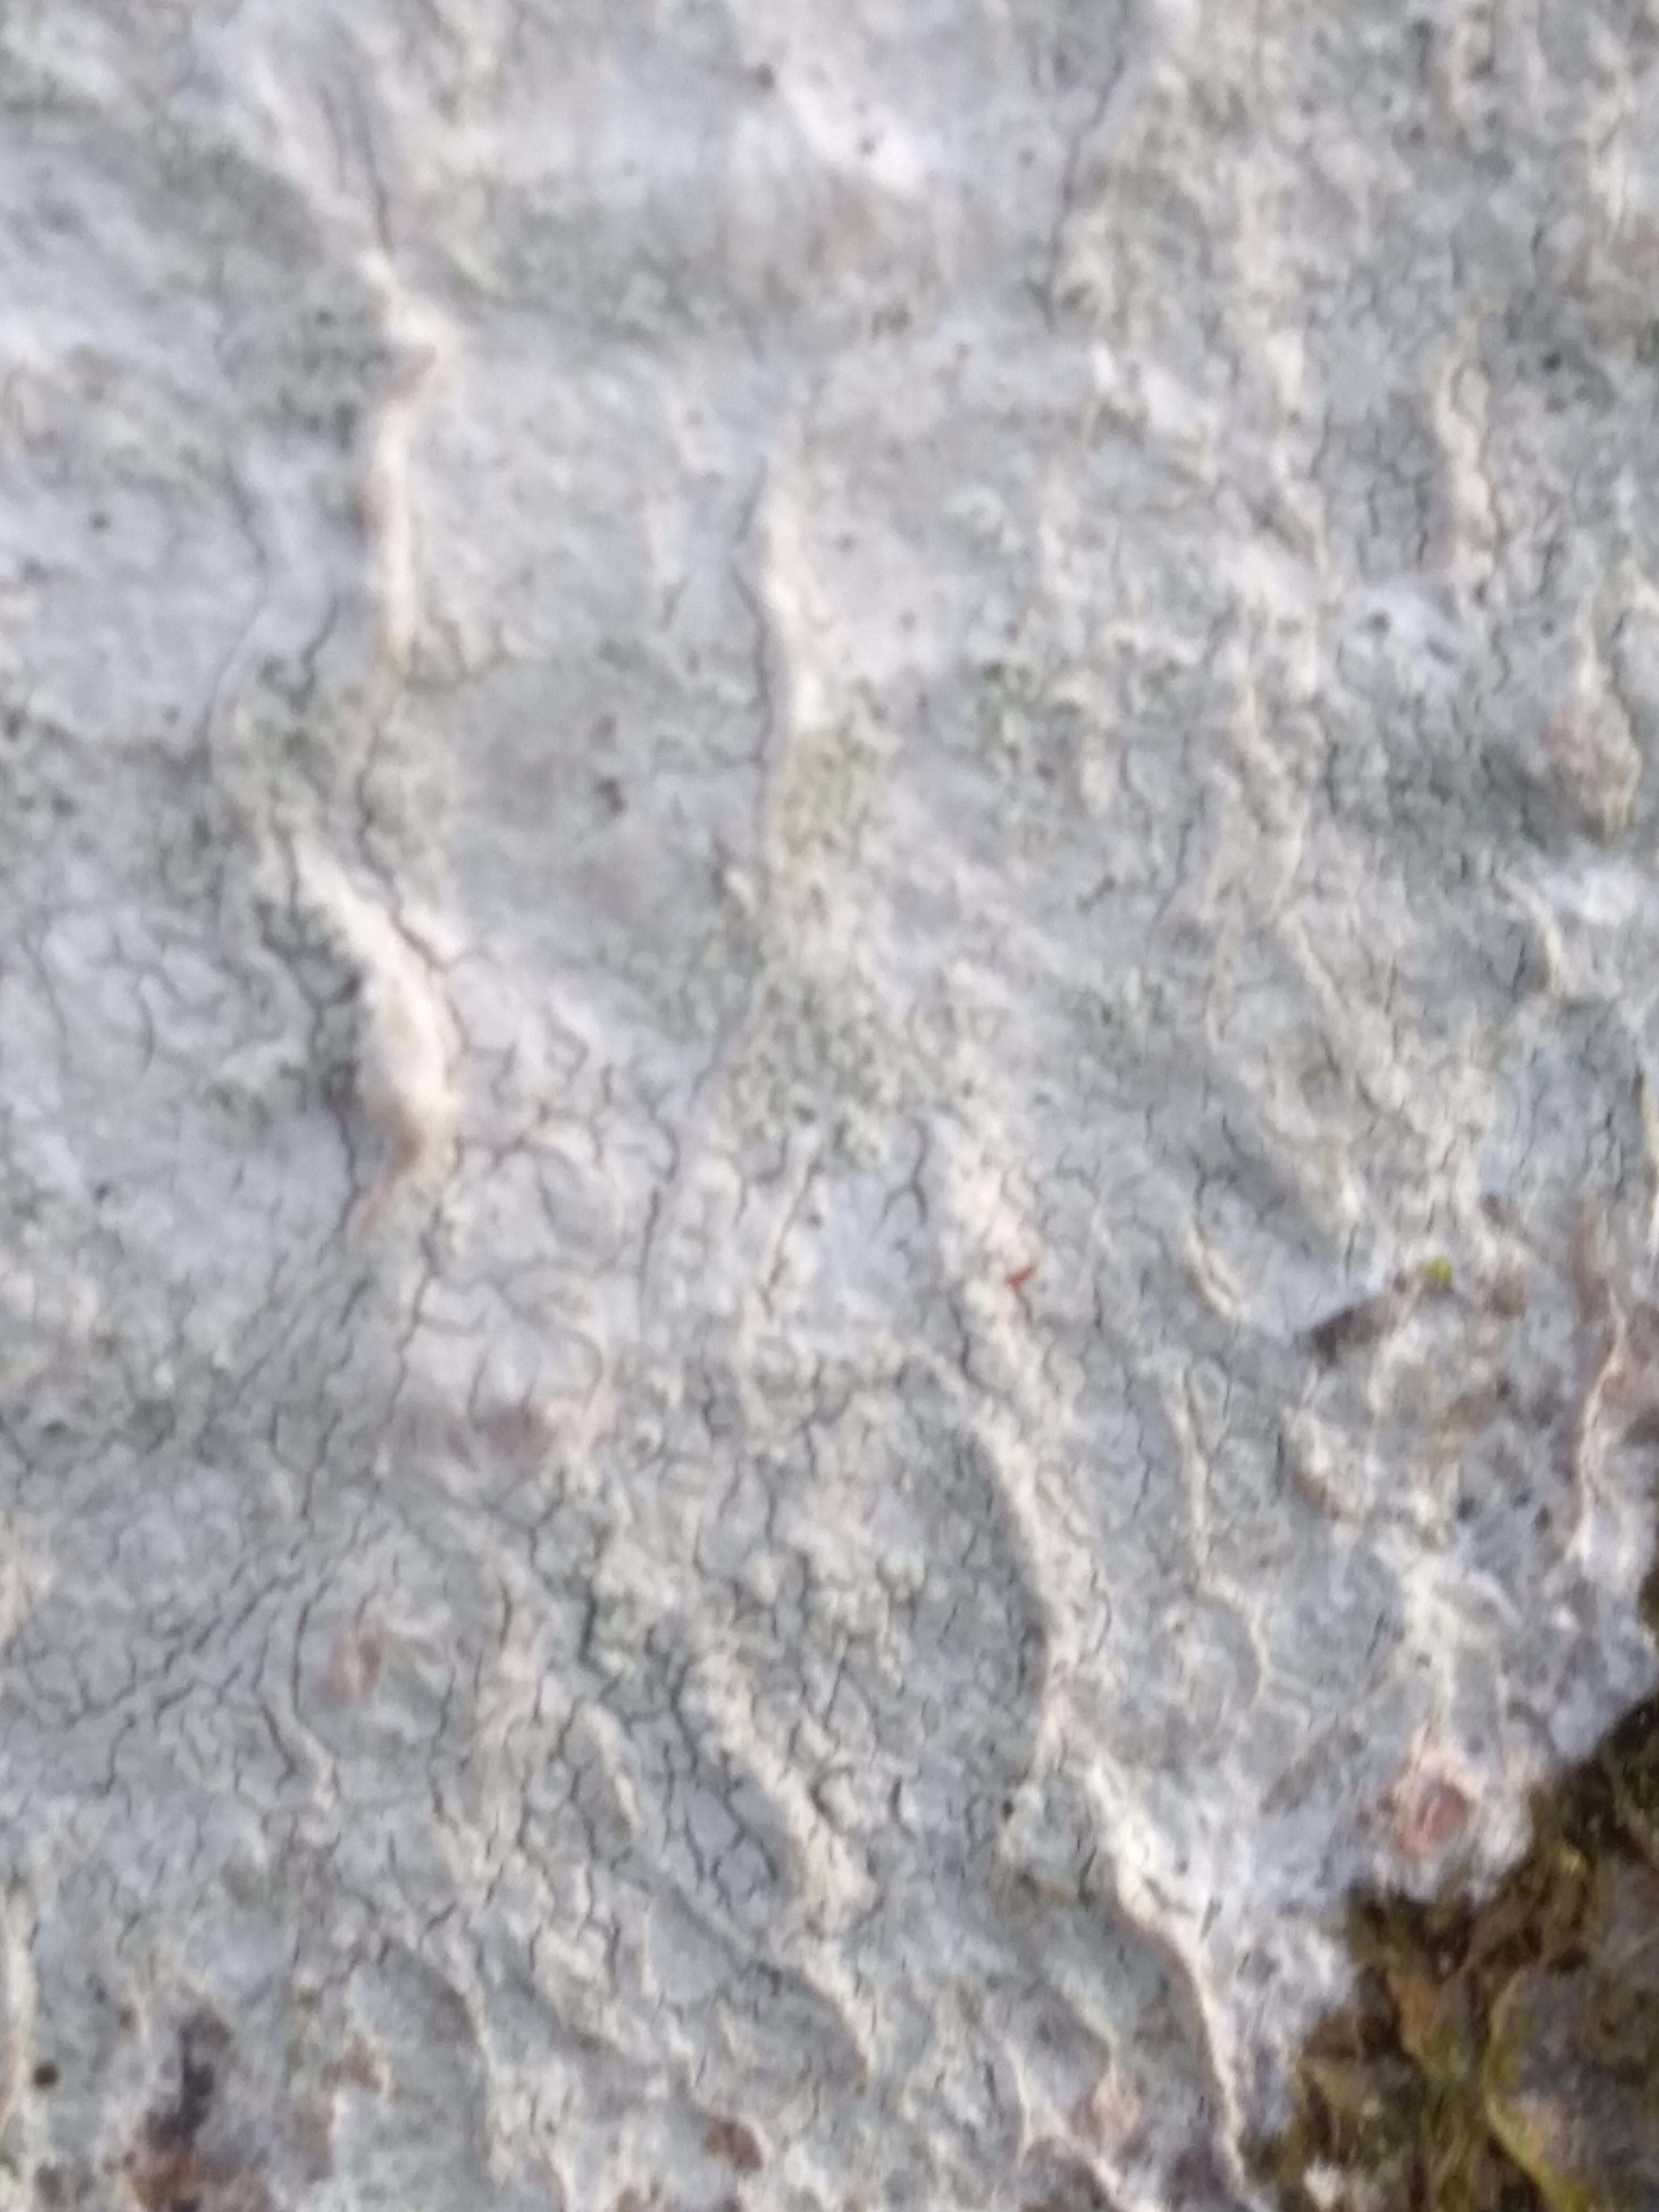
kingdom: Fungi
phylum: Ascomycota
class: Lecanoromycetes
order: Ostropales
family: Phlyctidaceae
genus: Phlyctis
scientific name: Phlyctis argena
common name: almindelig sølvlav
